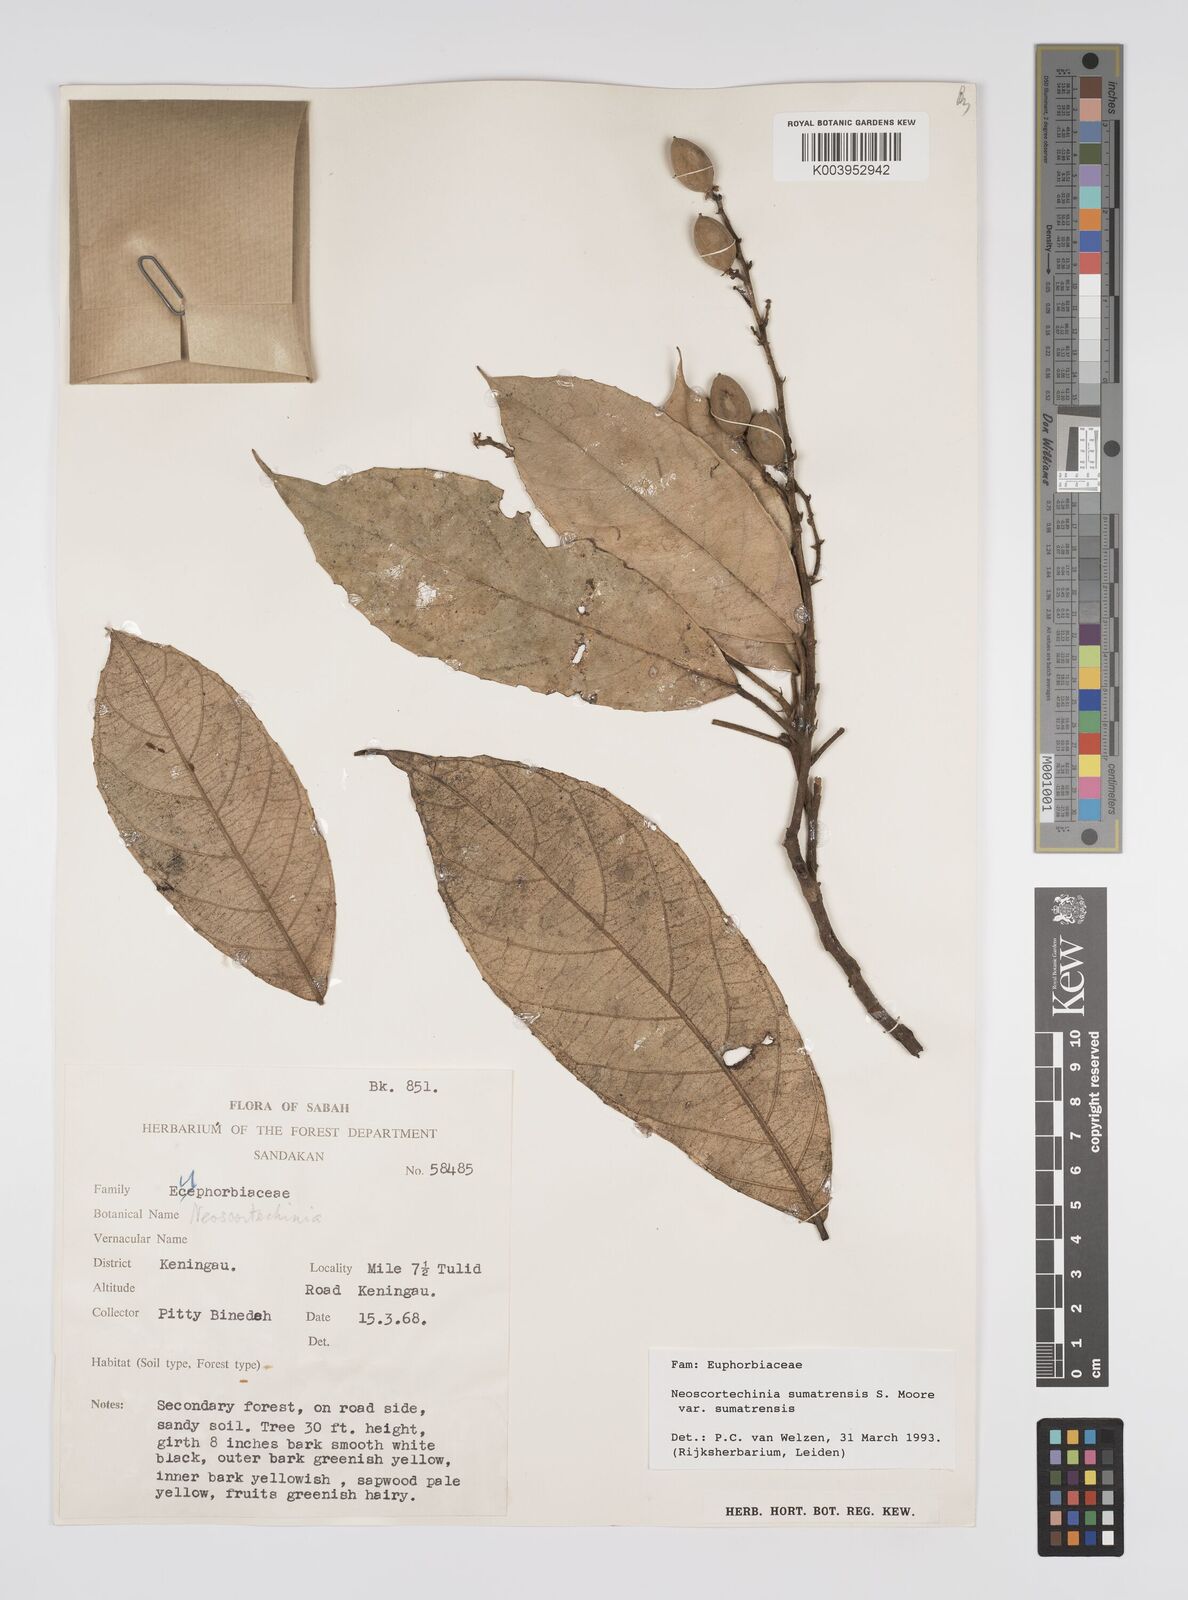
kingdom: Plantae
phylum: Tracheophyta
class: Magnoliopsida
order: Malpighiales
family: Euphorbiaceae
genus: Neoscortechinia
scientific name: Neoscortechinia sumatrensis
